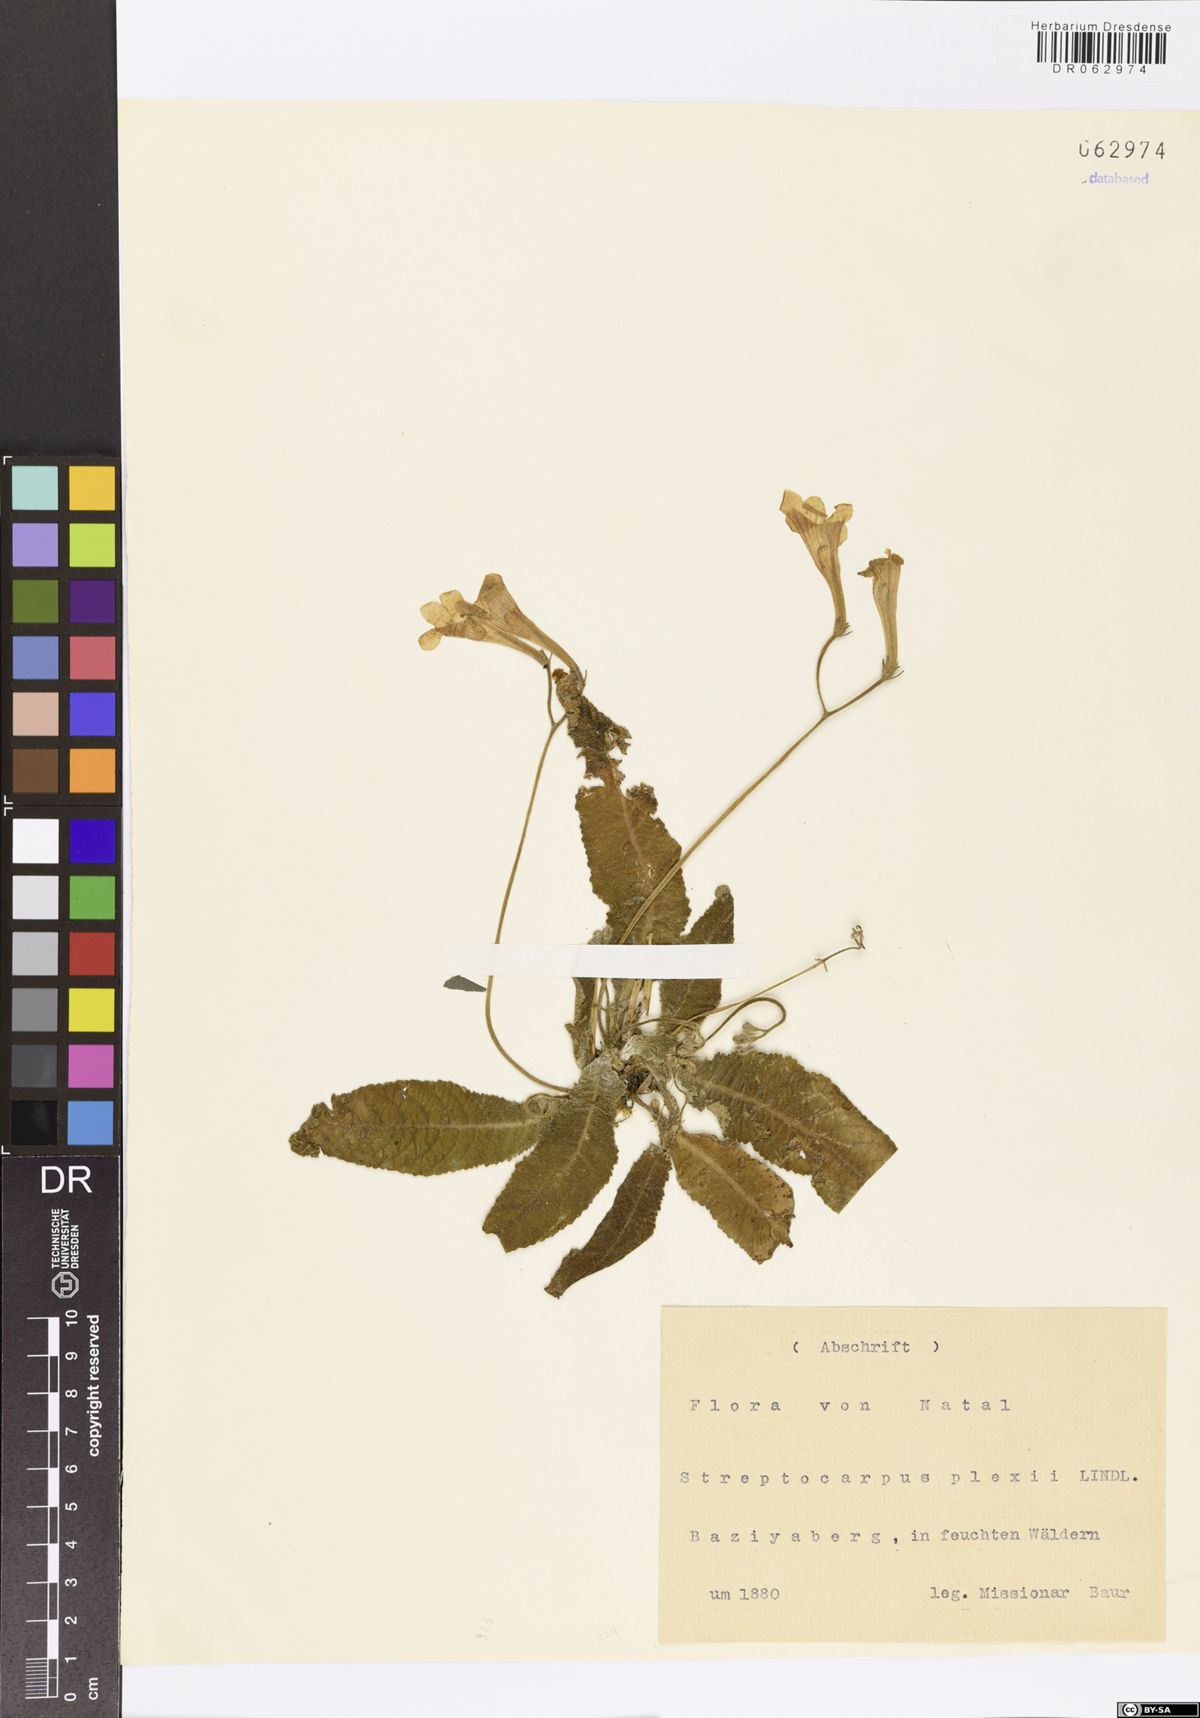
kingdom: Plantae
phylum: Tracheophyta
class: Magnoliopsida
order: Lamiales
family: Gesneriaceae
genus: Streptocarpus
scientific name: Streptocarpus
